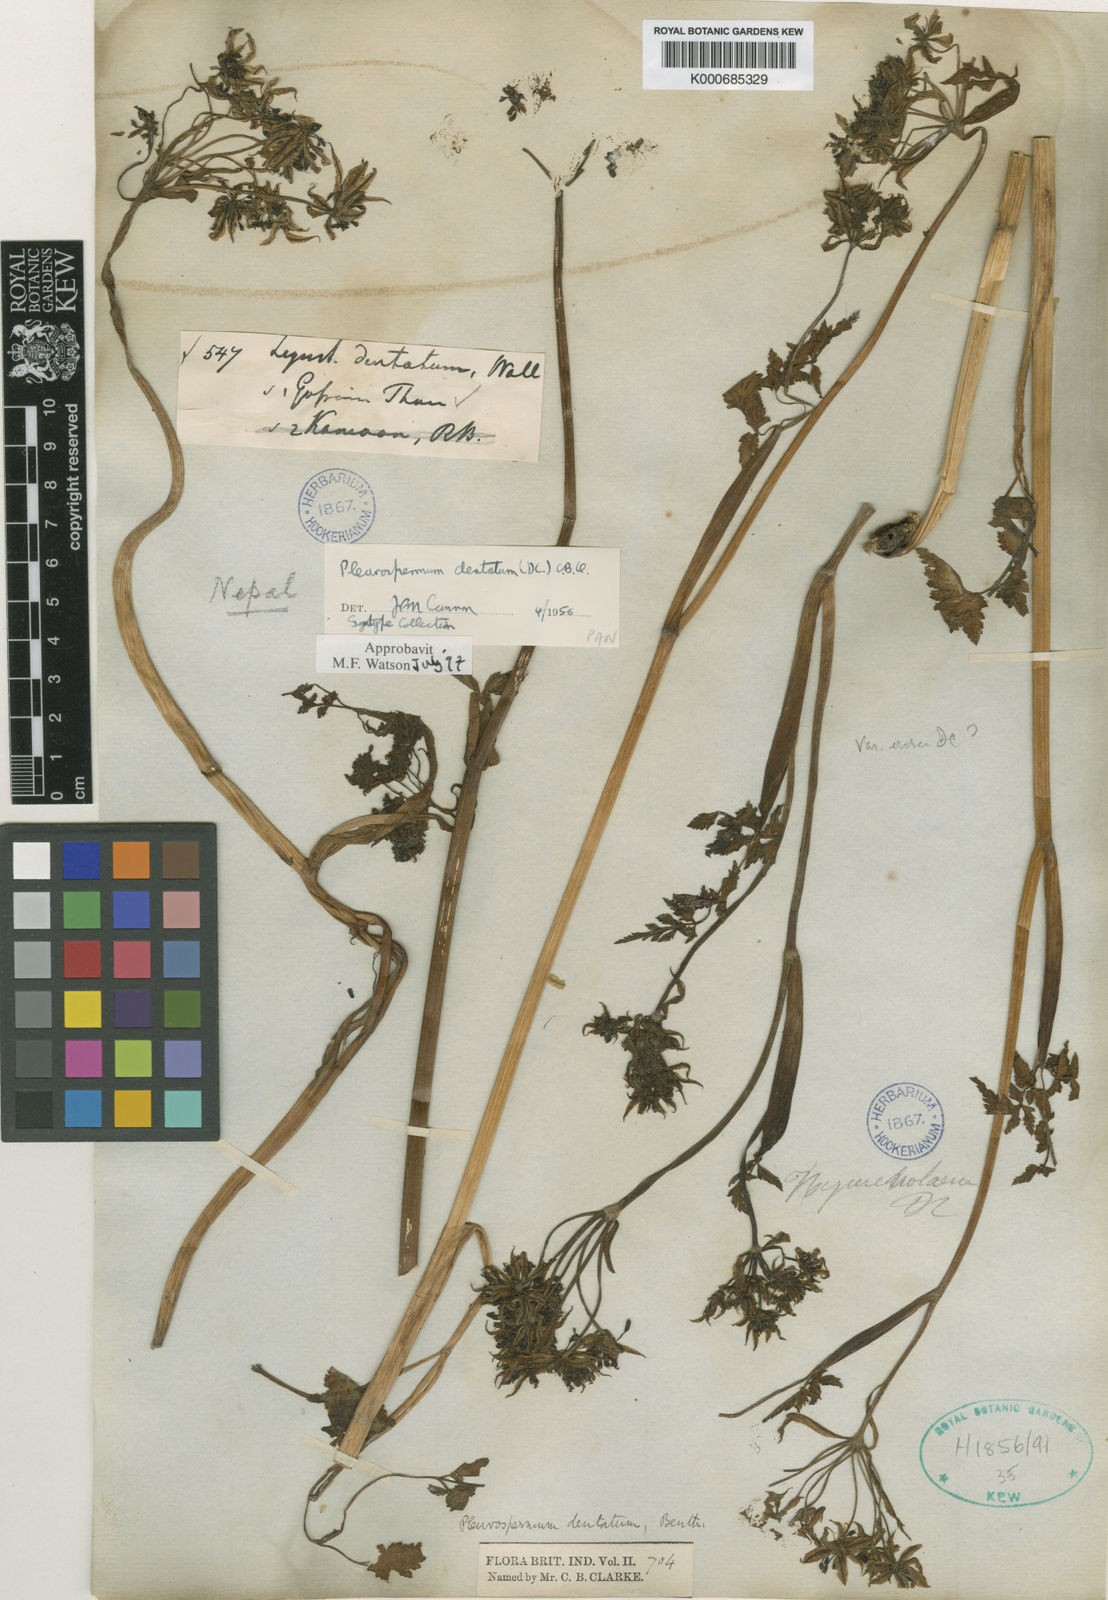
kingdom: Plantae
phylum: Tracheophyta
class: Magnoliopsida
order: Apiales
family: Apiaceae
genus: Hymenidium
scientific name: Hymenidium dentatum
